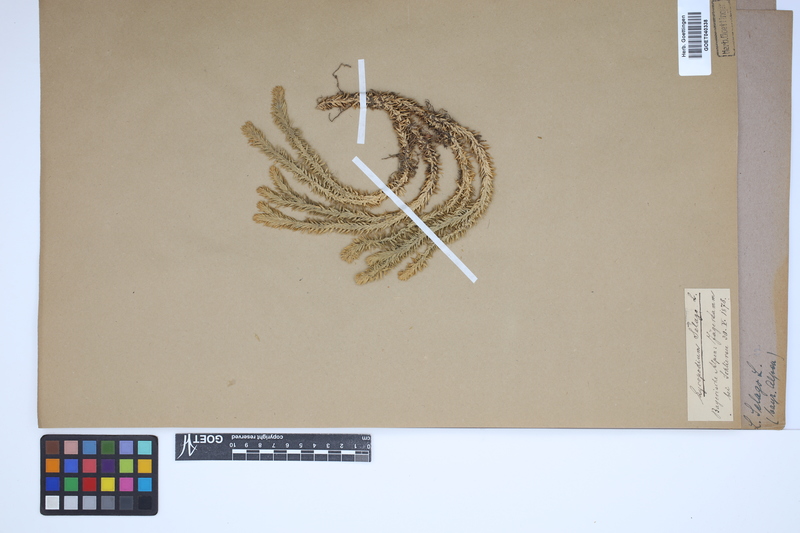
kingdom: Plantae
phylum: Tracheophyta
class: Lycopodiopsida
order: Lycopodiales
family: Lycopodiaceae
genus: Huperzia
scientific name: Huperzia selago
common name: Northern firmoss
